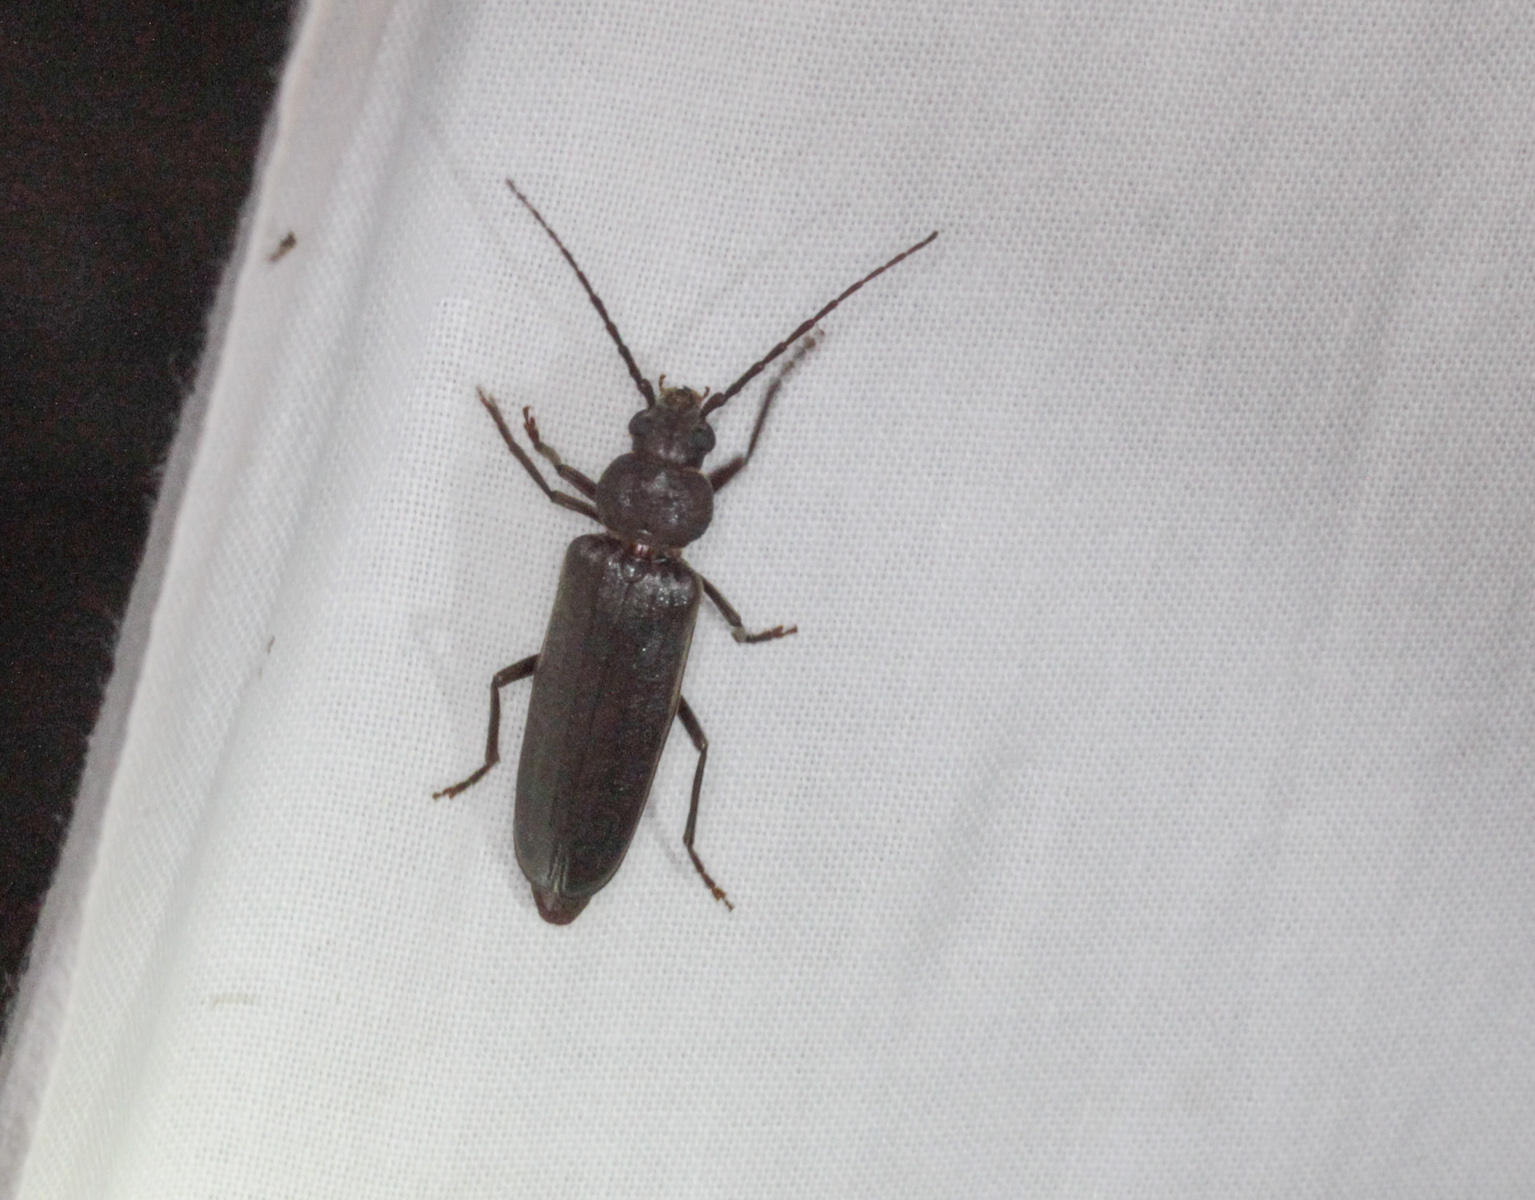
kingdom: Animalia
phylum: Arthropoda
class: Insecta
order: Coleoptera
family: Cerambycidae
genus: Arhopalus
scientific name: Arhopalus rusticus
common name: Rust pine borer
